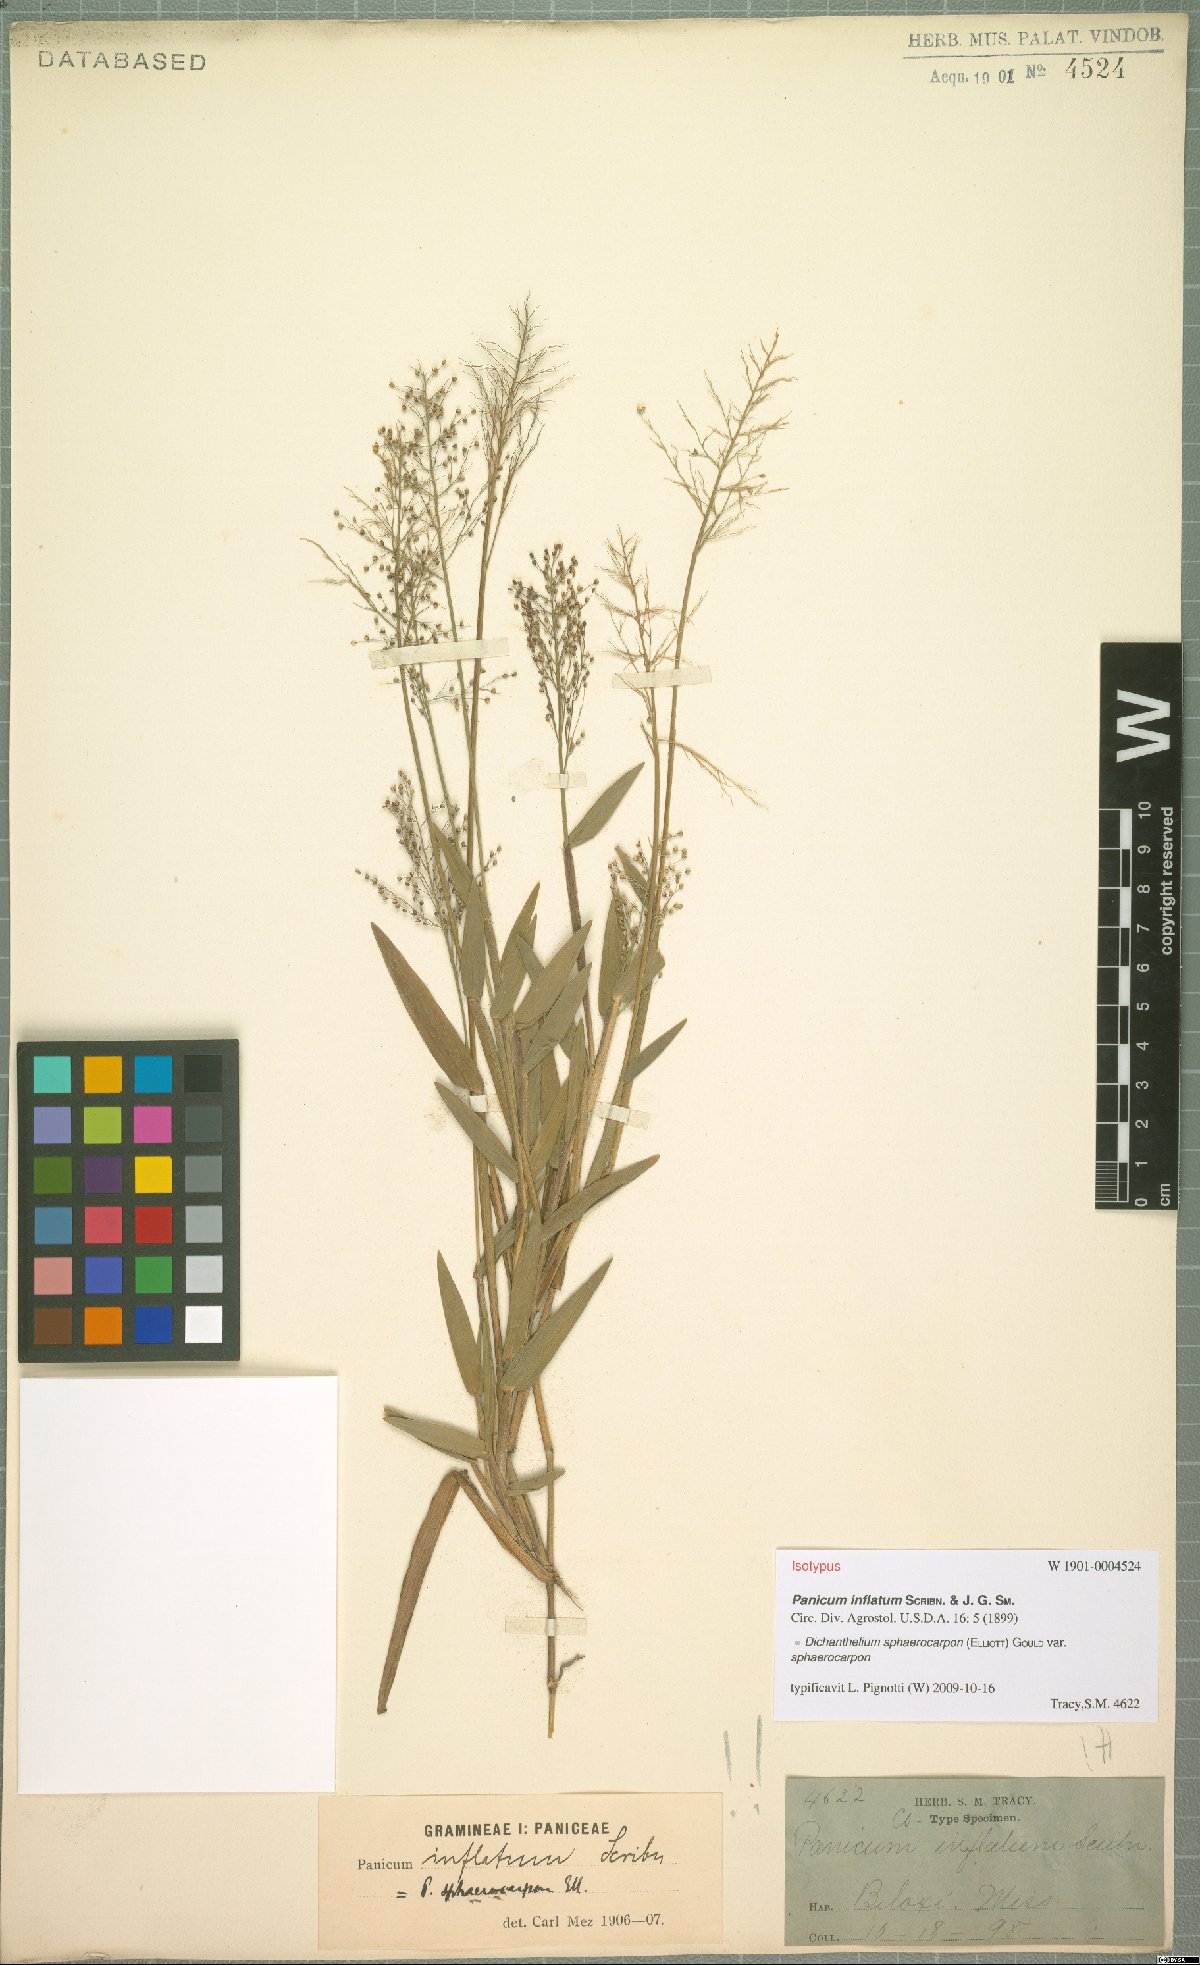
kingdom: Plantae
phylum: Tracheophyta
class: Liliopsida
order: Poales
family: Poaceae
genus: Dichanthelium
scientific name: Dichanthelium sphaerocarpon
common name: Round-fruited panicgrass
